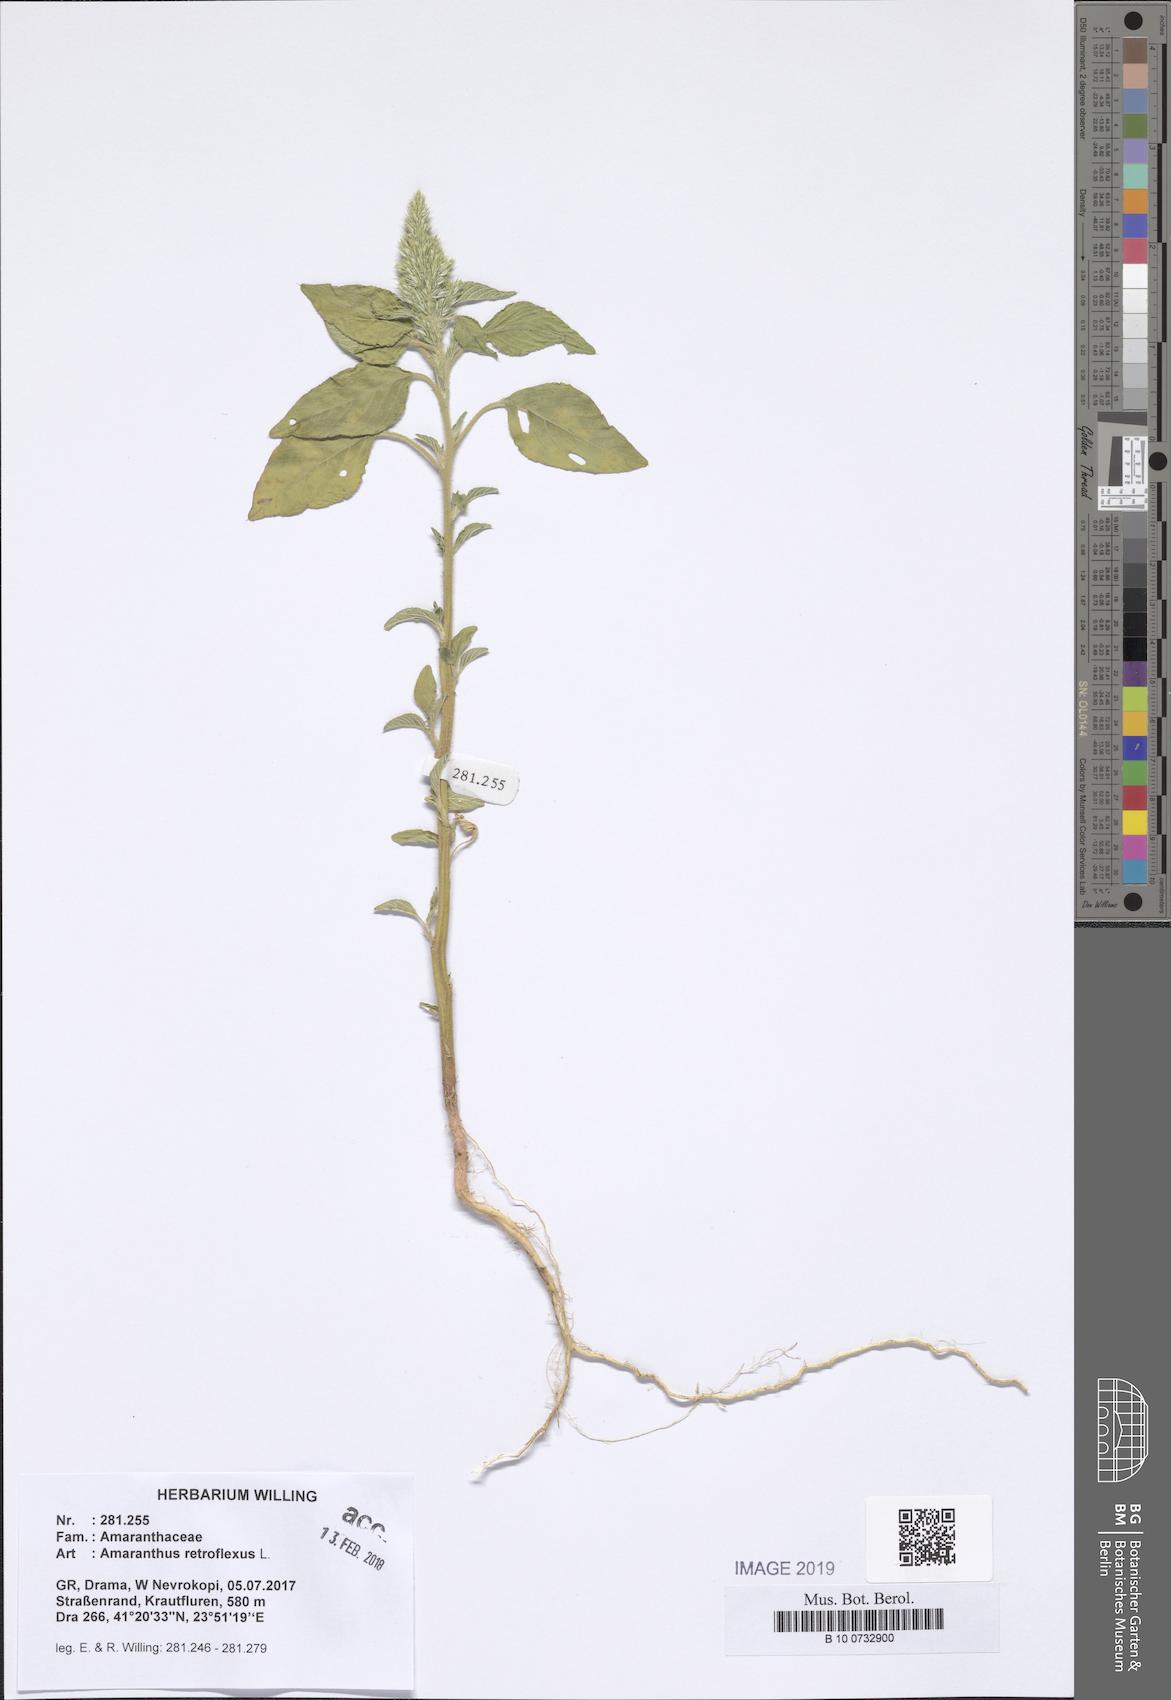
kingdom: Plantae
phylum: Tracheophyta
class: Magnoliopsida
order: Caryophyllales
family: Amaranthaceae
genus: Amaranthus
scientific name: Amaranthus retroflexus
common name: Redroot amaranth
